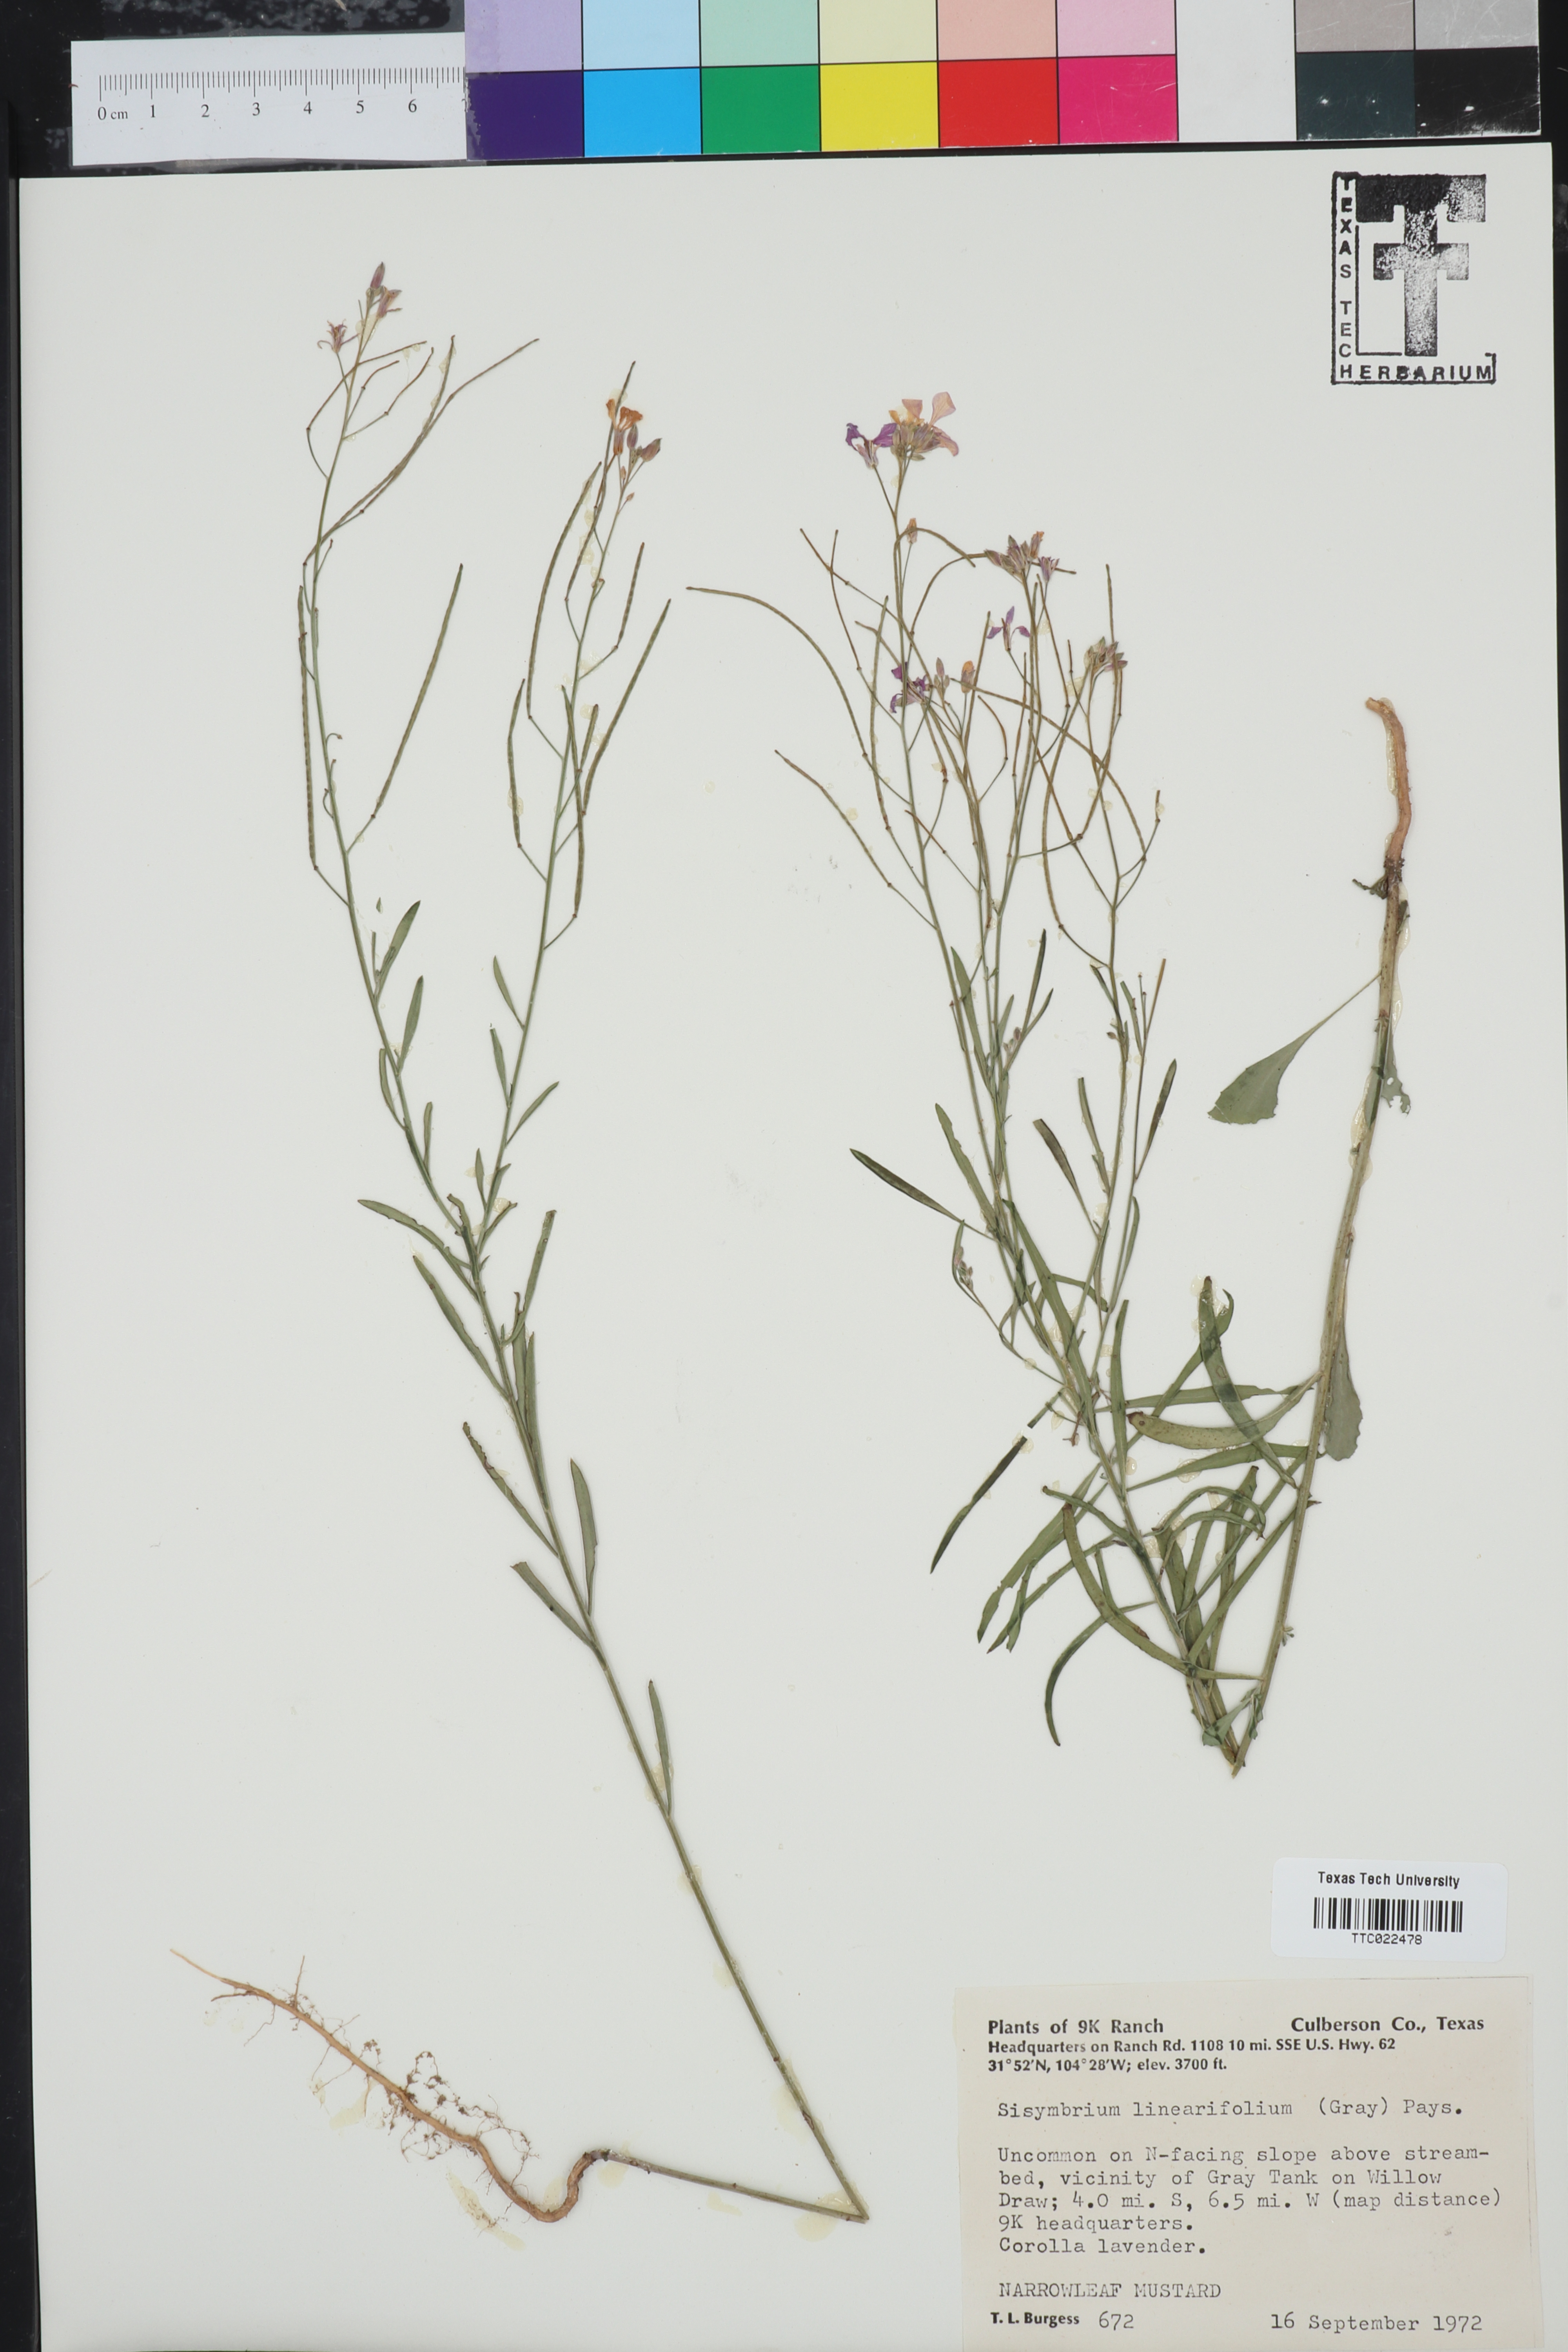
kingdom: Plantae
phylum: Tracheophyta
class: Magnoliopsida
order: Brassicales
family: Brassicaceae
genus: Hesperidanthus
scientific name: Hesperidanthus linearifolius
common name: Slim-leaf plains mustard
